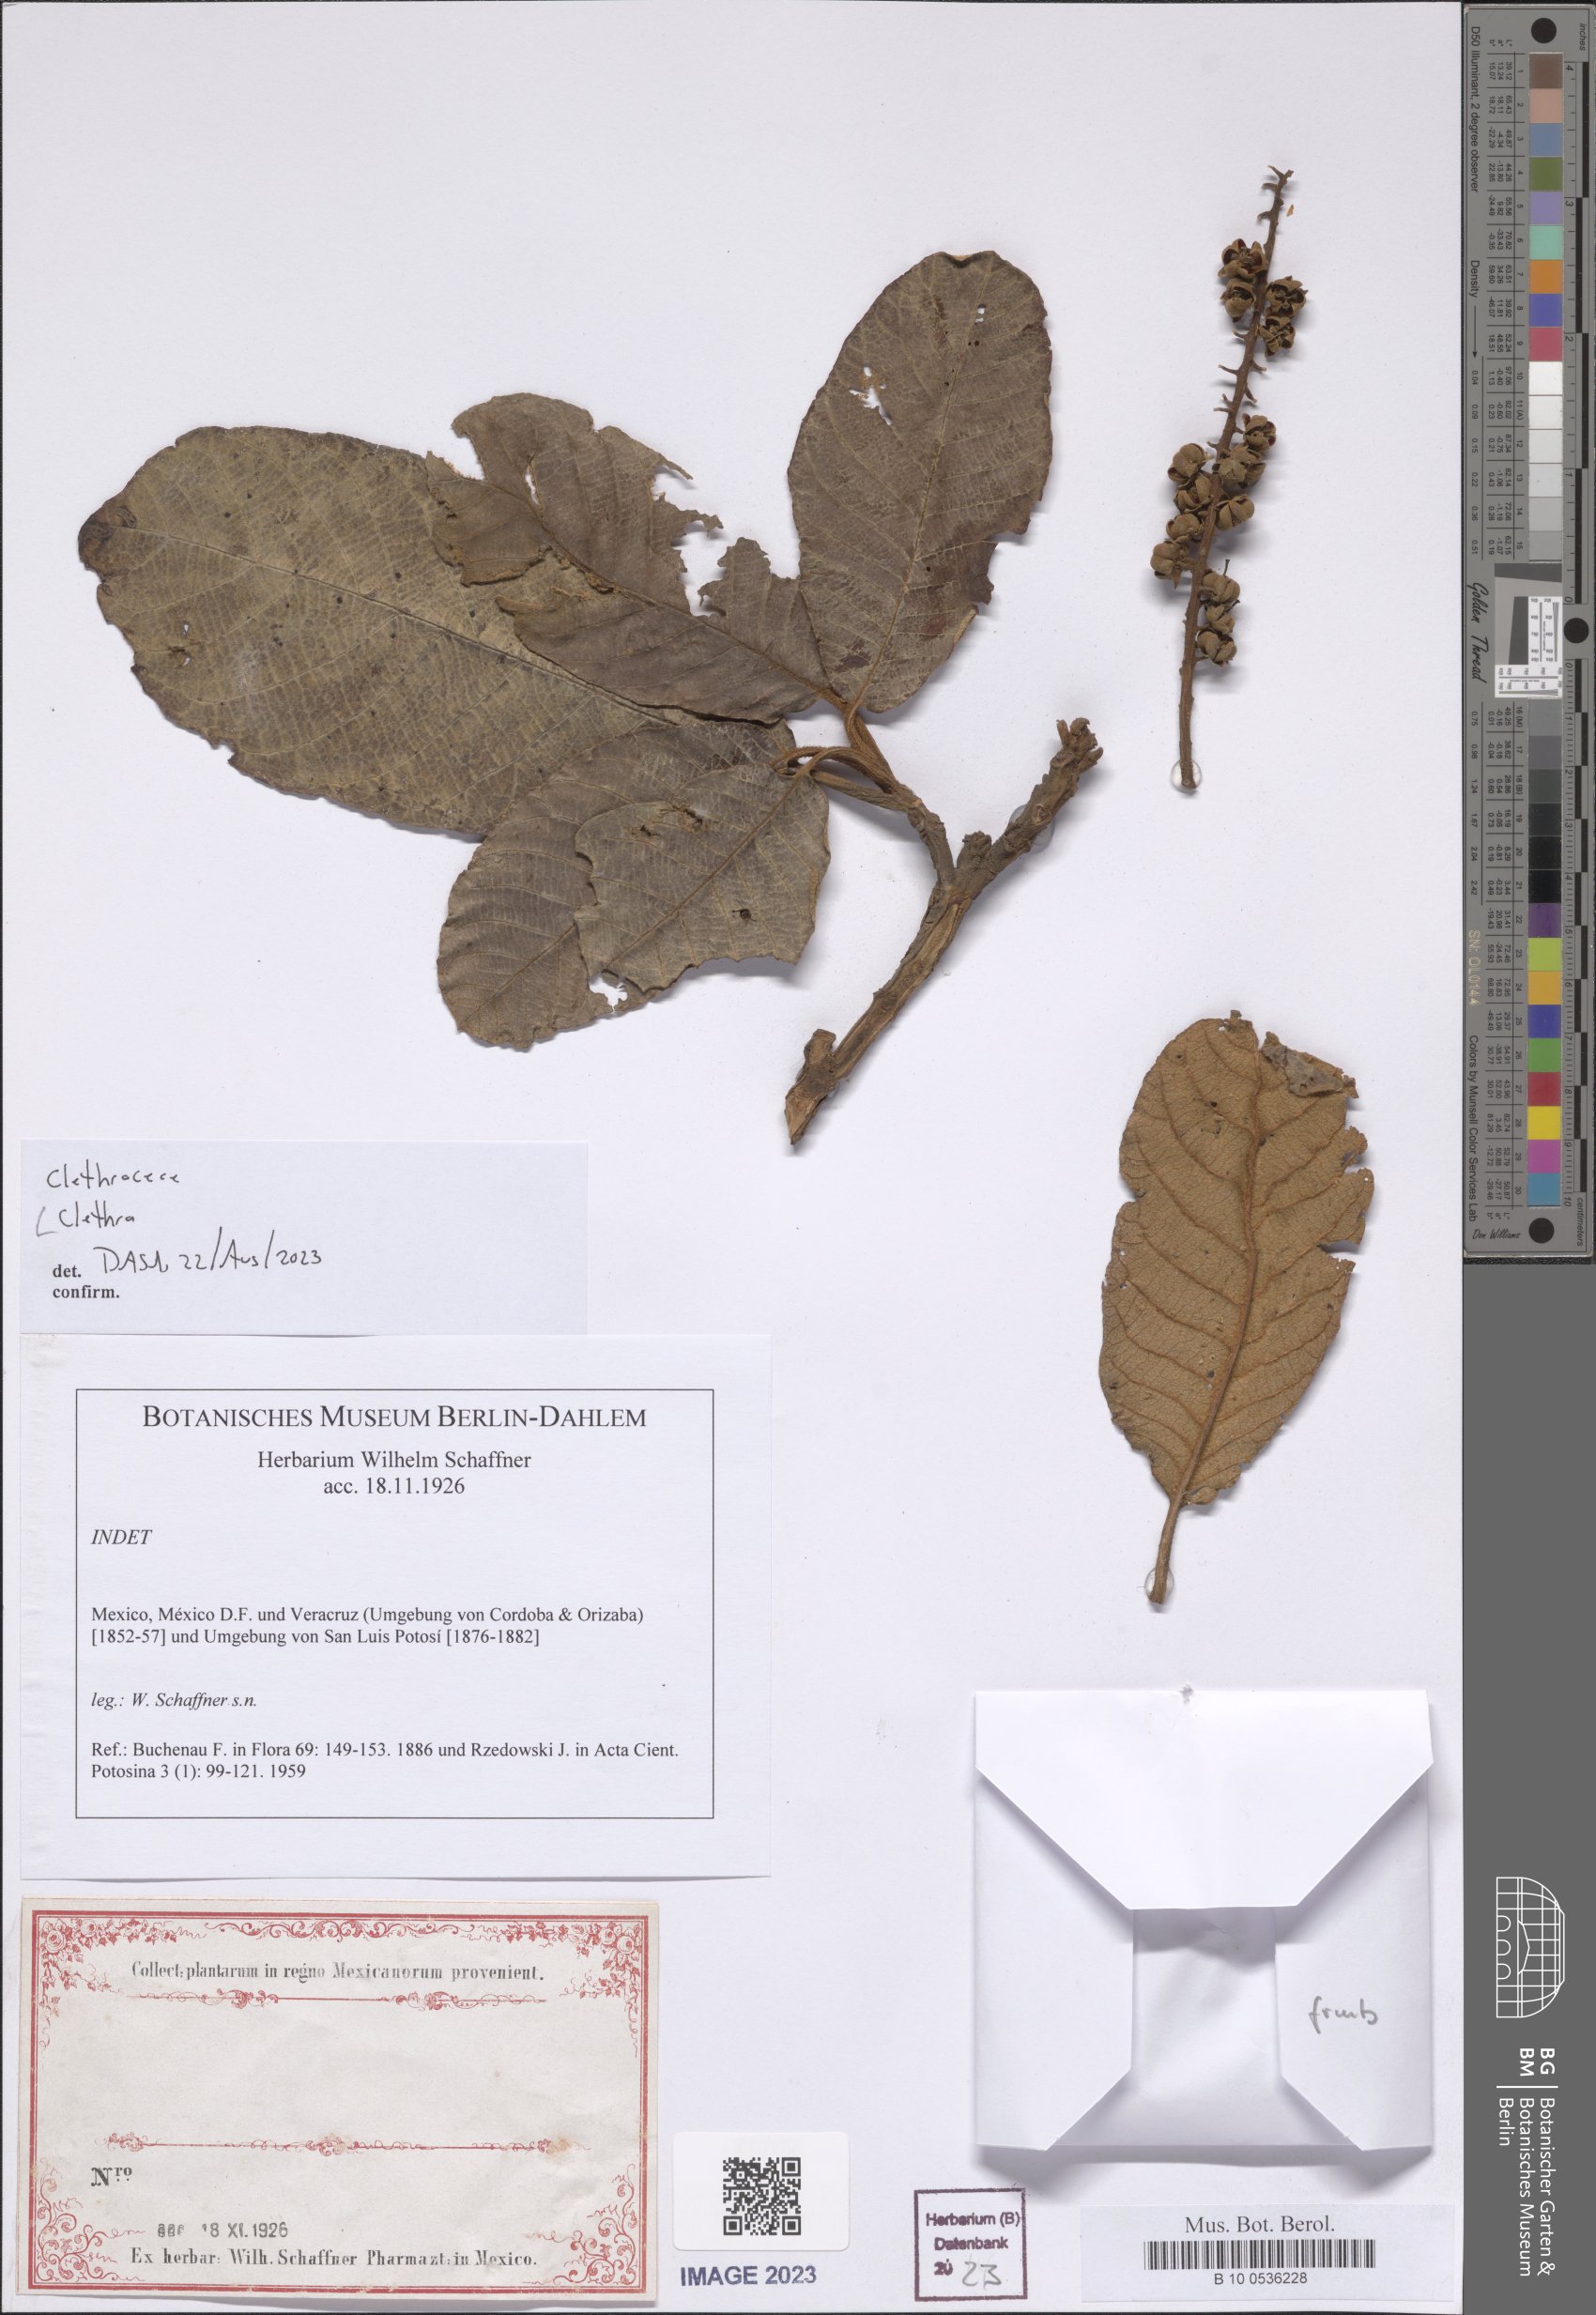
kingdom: Plantae
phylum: Tracheophyta
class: Magnoliopsida
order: Ericales
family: Clethraceae
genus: Clethra
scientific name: Clethra
